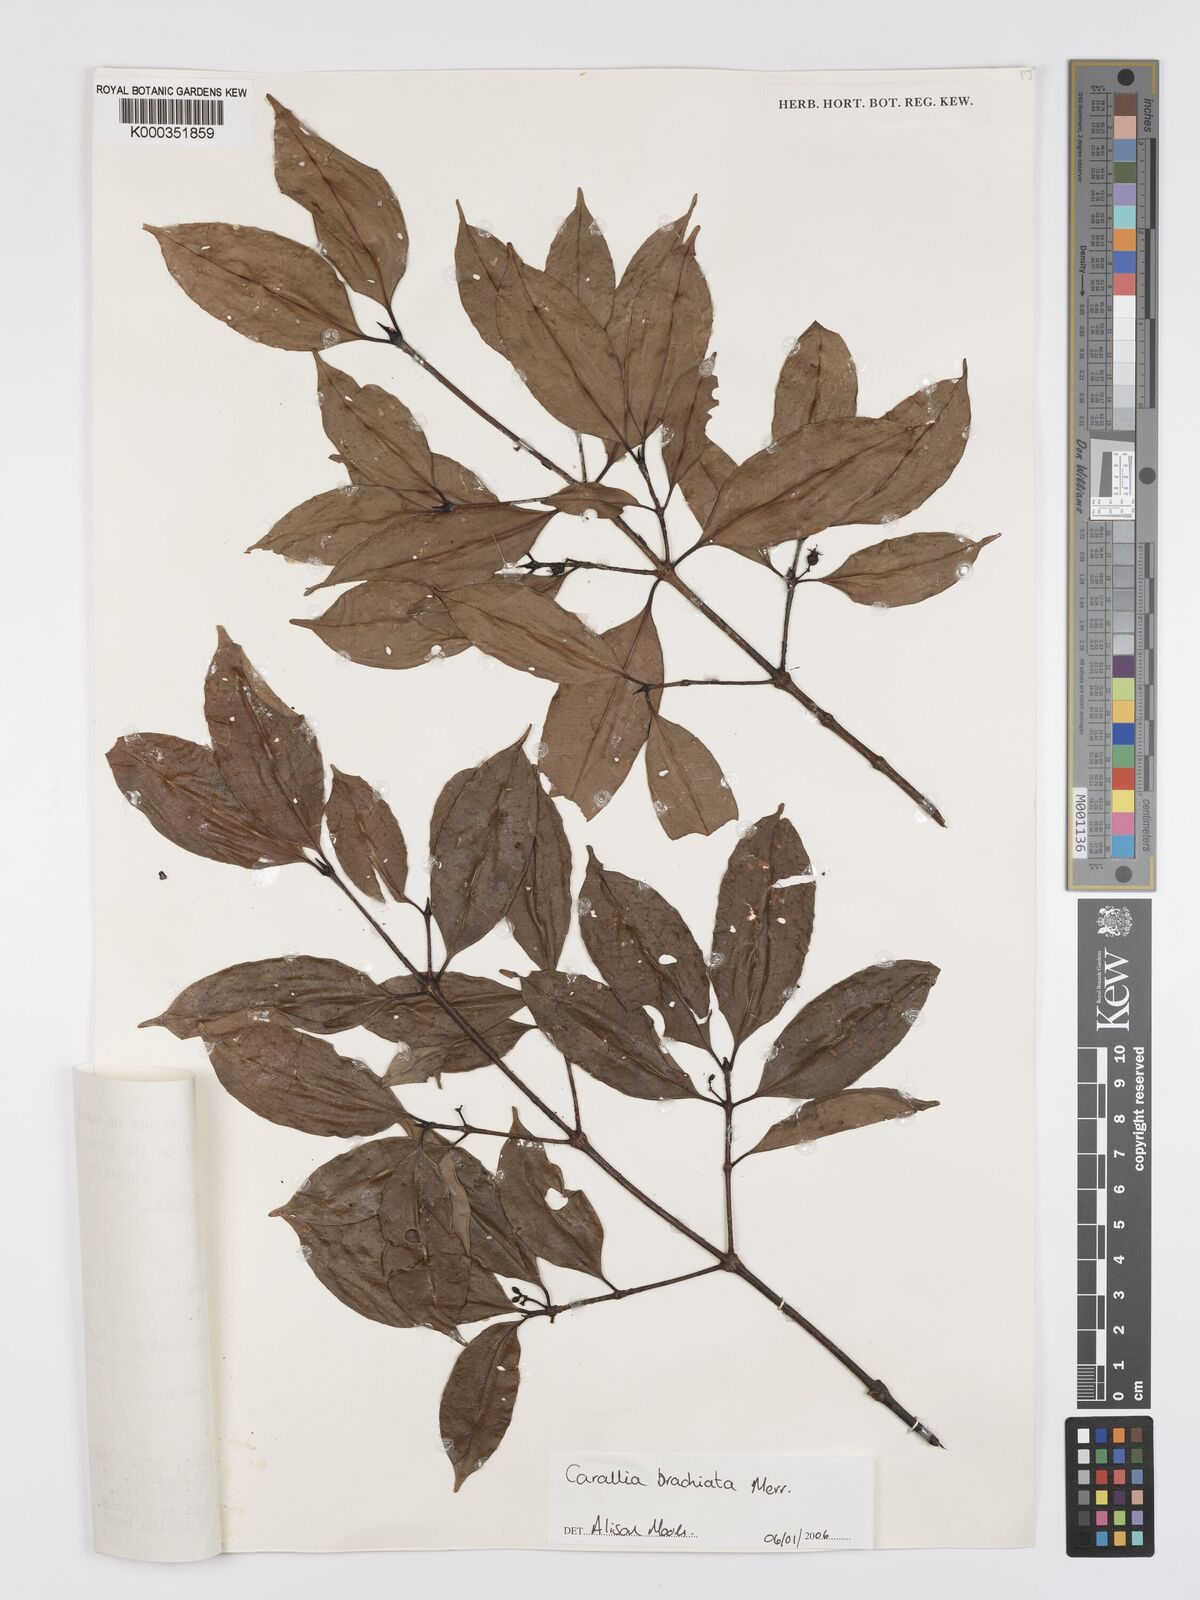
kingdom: Plantae
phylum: Tracheophyta
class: Magnoliopsida
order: Malpighiales
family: Rhizophoraceae
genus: Carallia
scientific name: Carallia brachiata
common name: Carallawood
